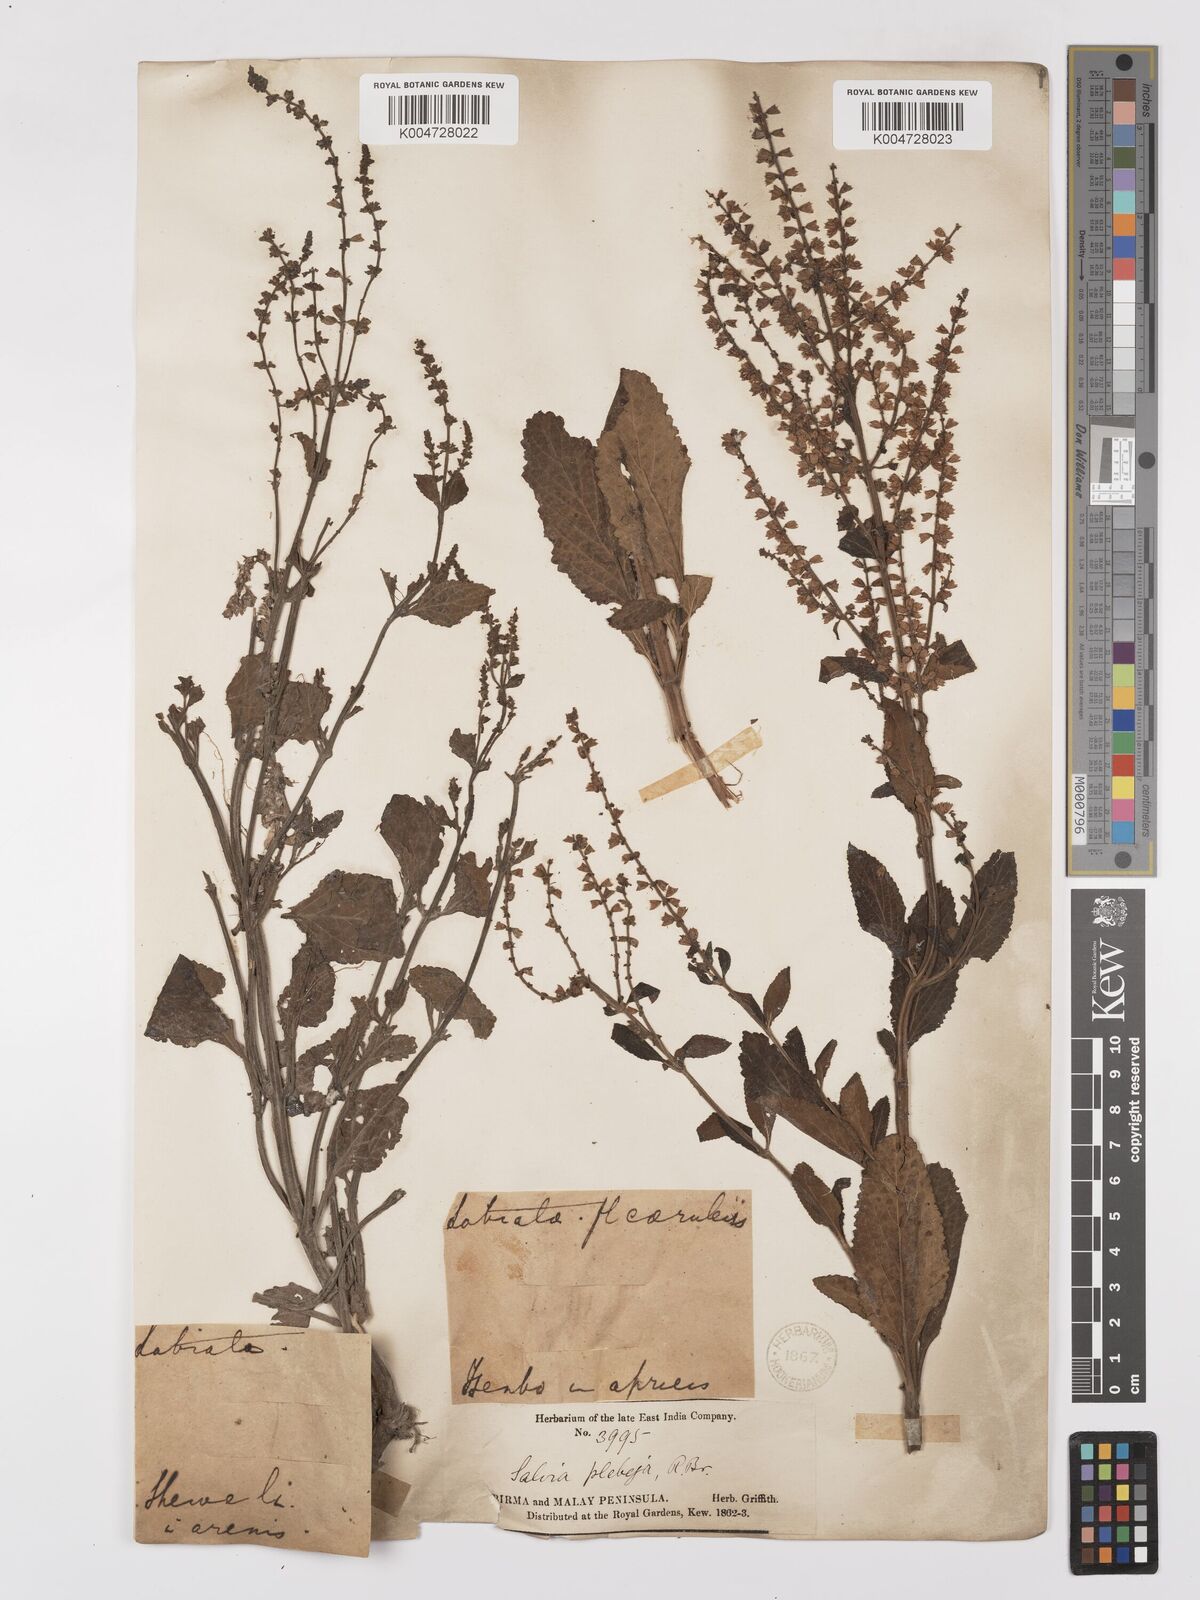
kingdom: Plantae
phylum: Tracheophyta
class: Magnoliopsida
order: Lamiales
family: Lamiaceae
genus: Salvia
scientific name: Salvia plebeia
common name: Australian sage
